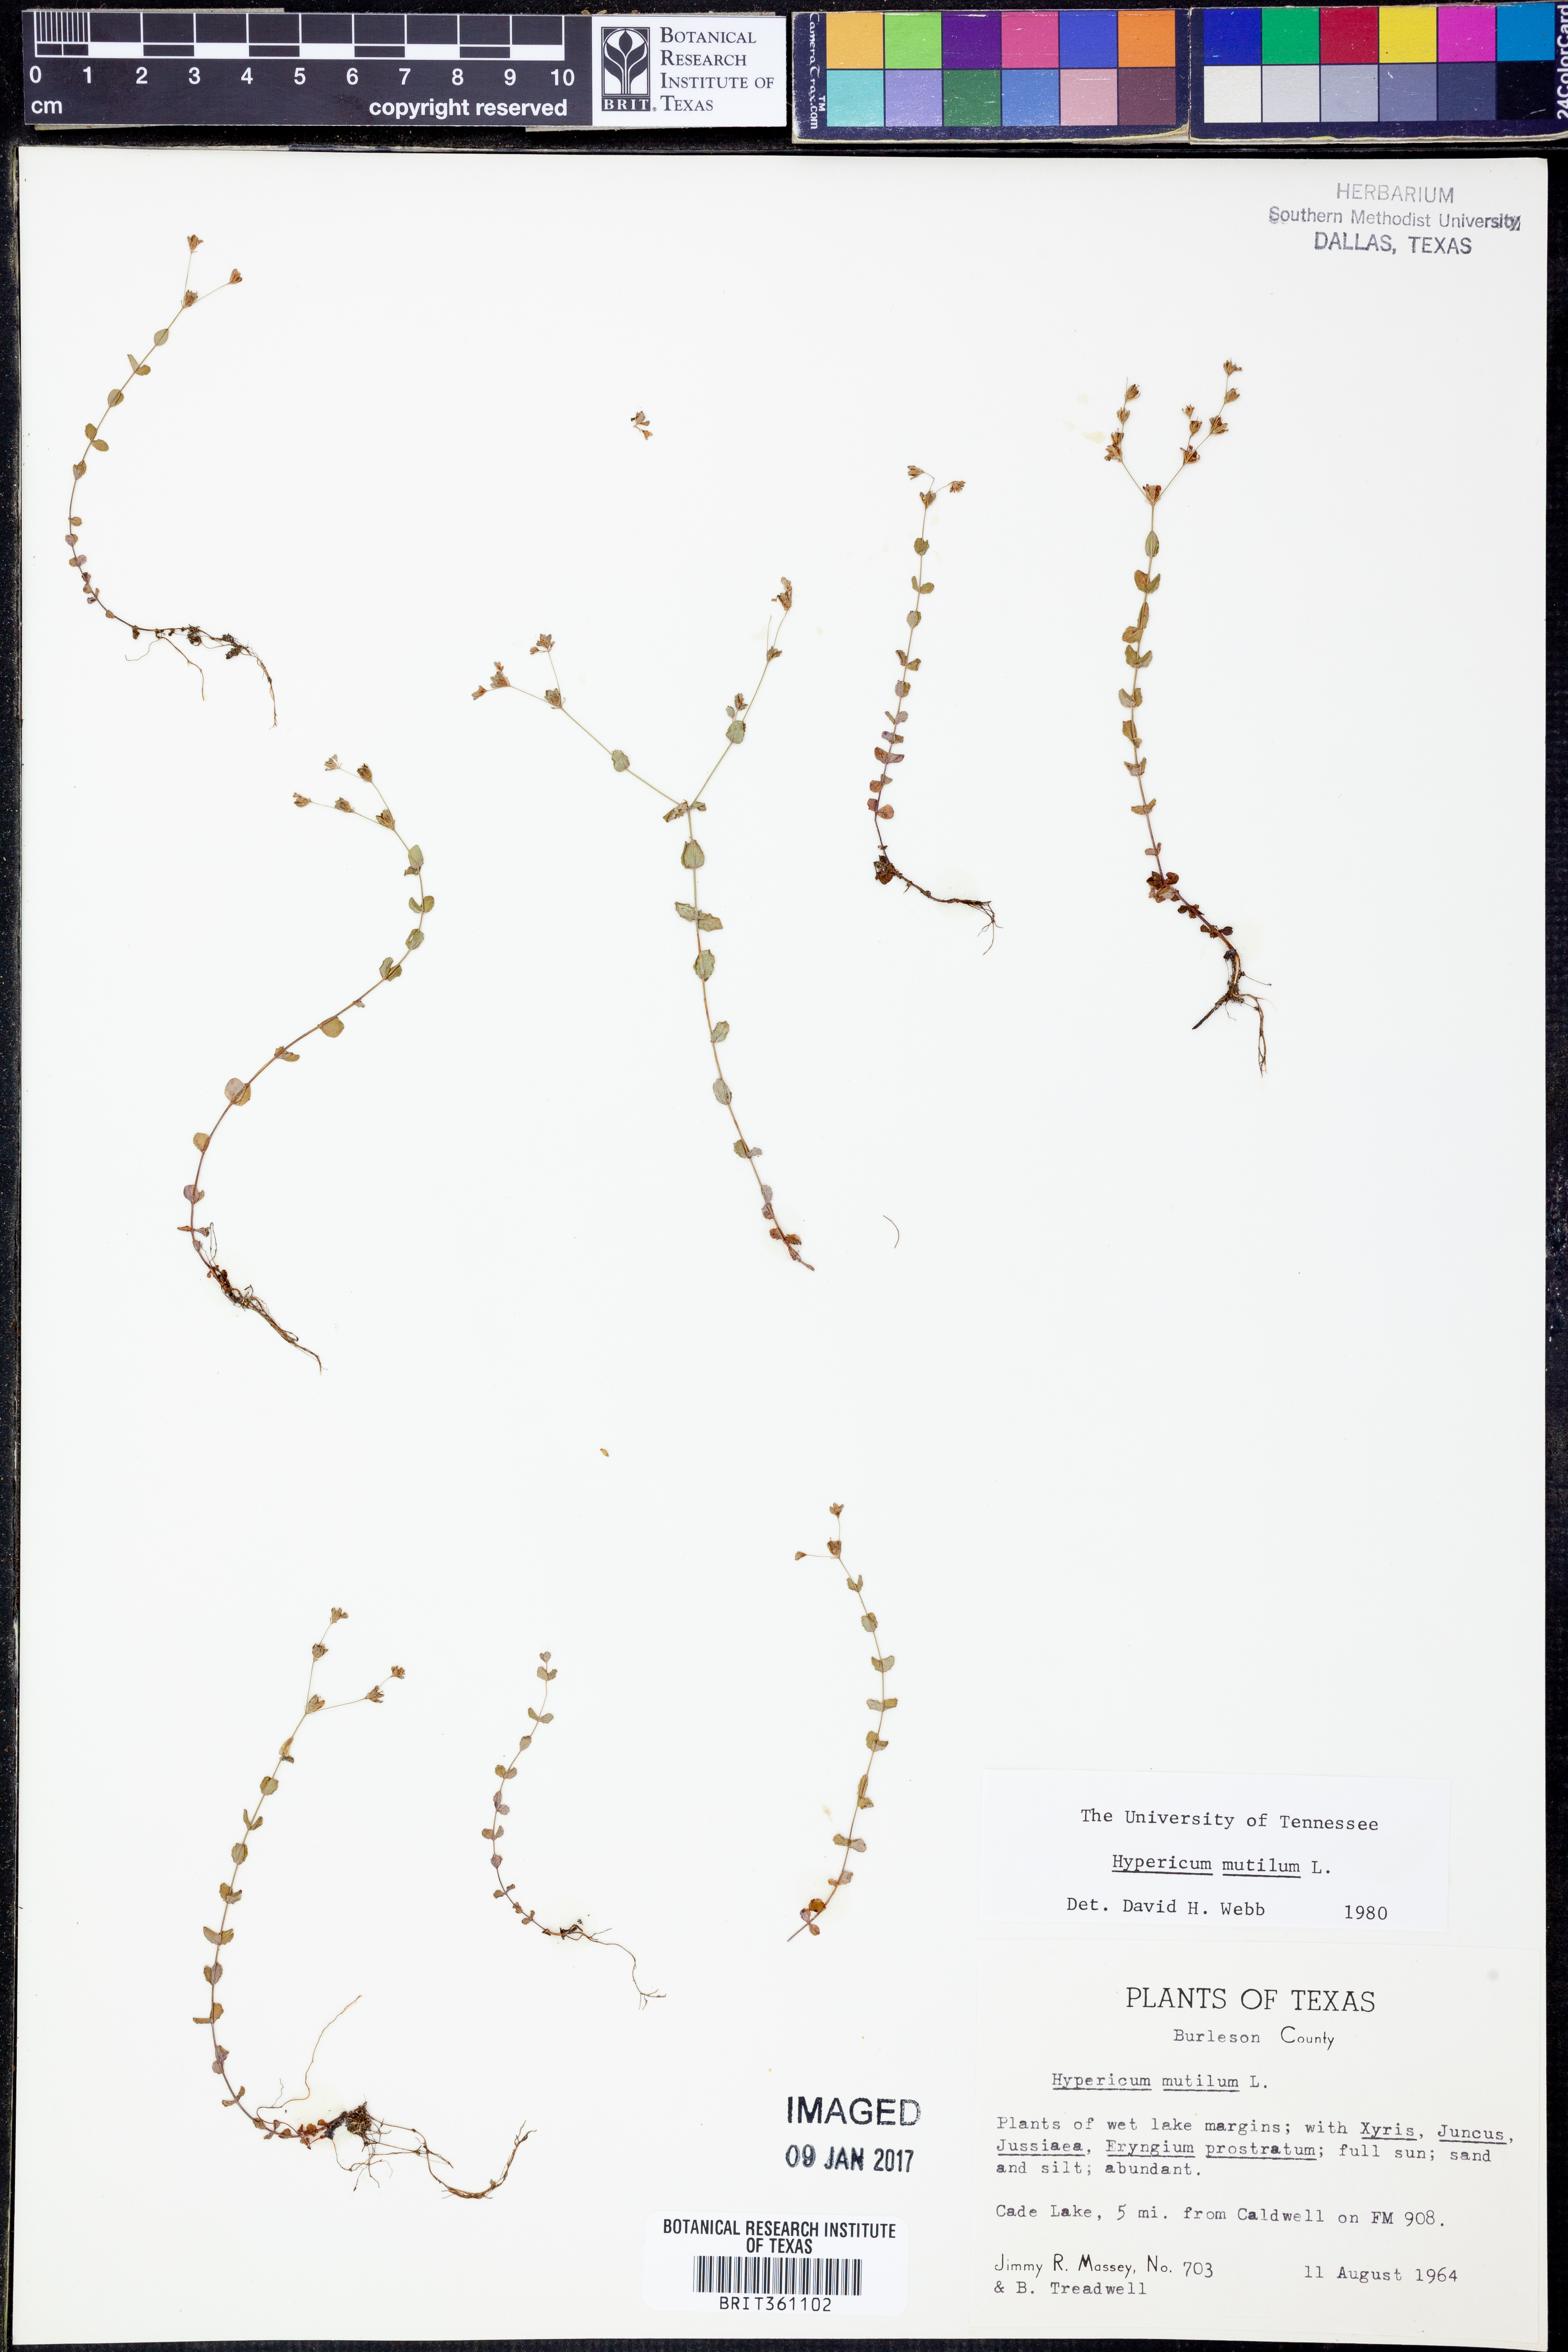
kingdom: Plantae
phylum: Tracheophyta
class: Magnoliopsida
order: Malpighiales
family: Hypericaceae
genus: Hypericum
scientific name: Hypericum mutilum
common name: Dwarf st. john's-wort
